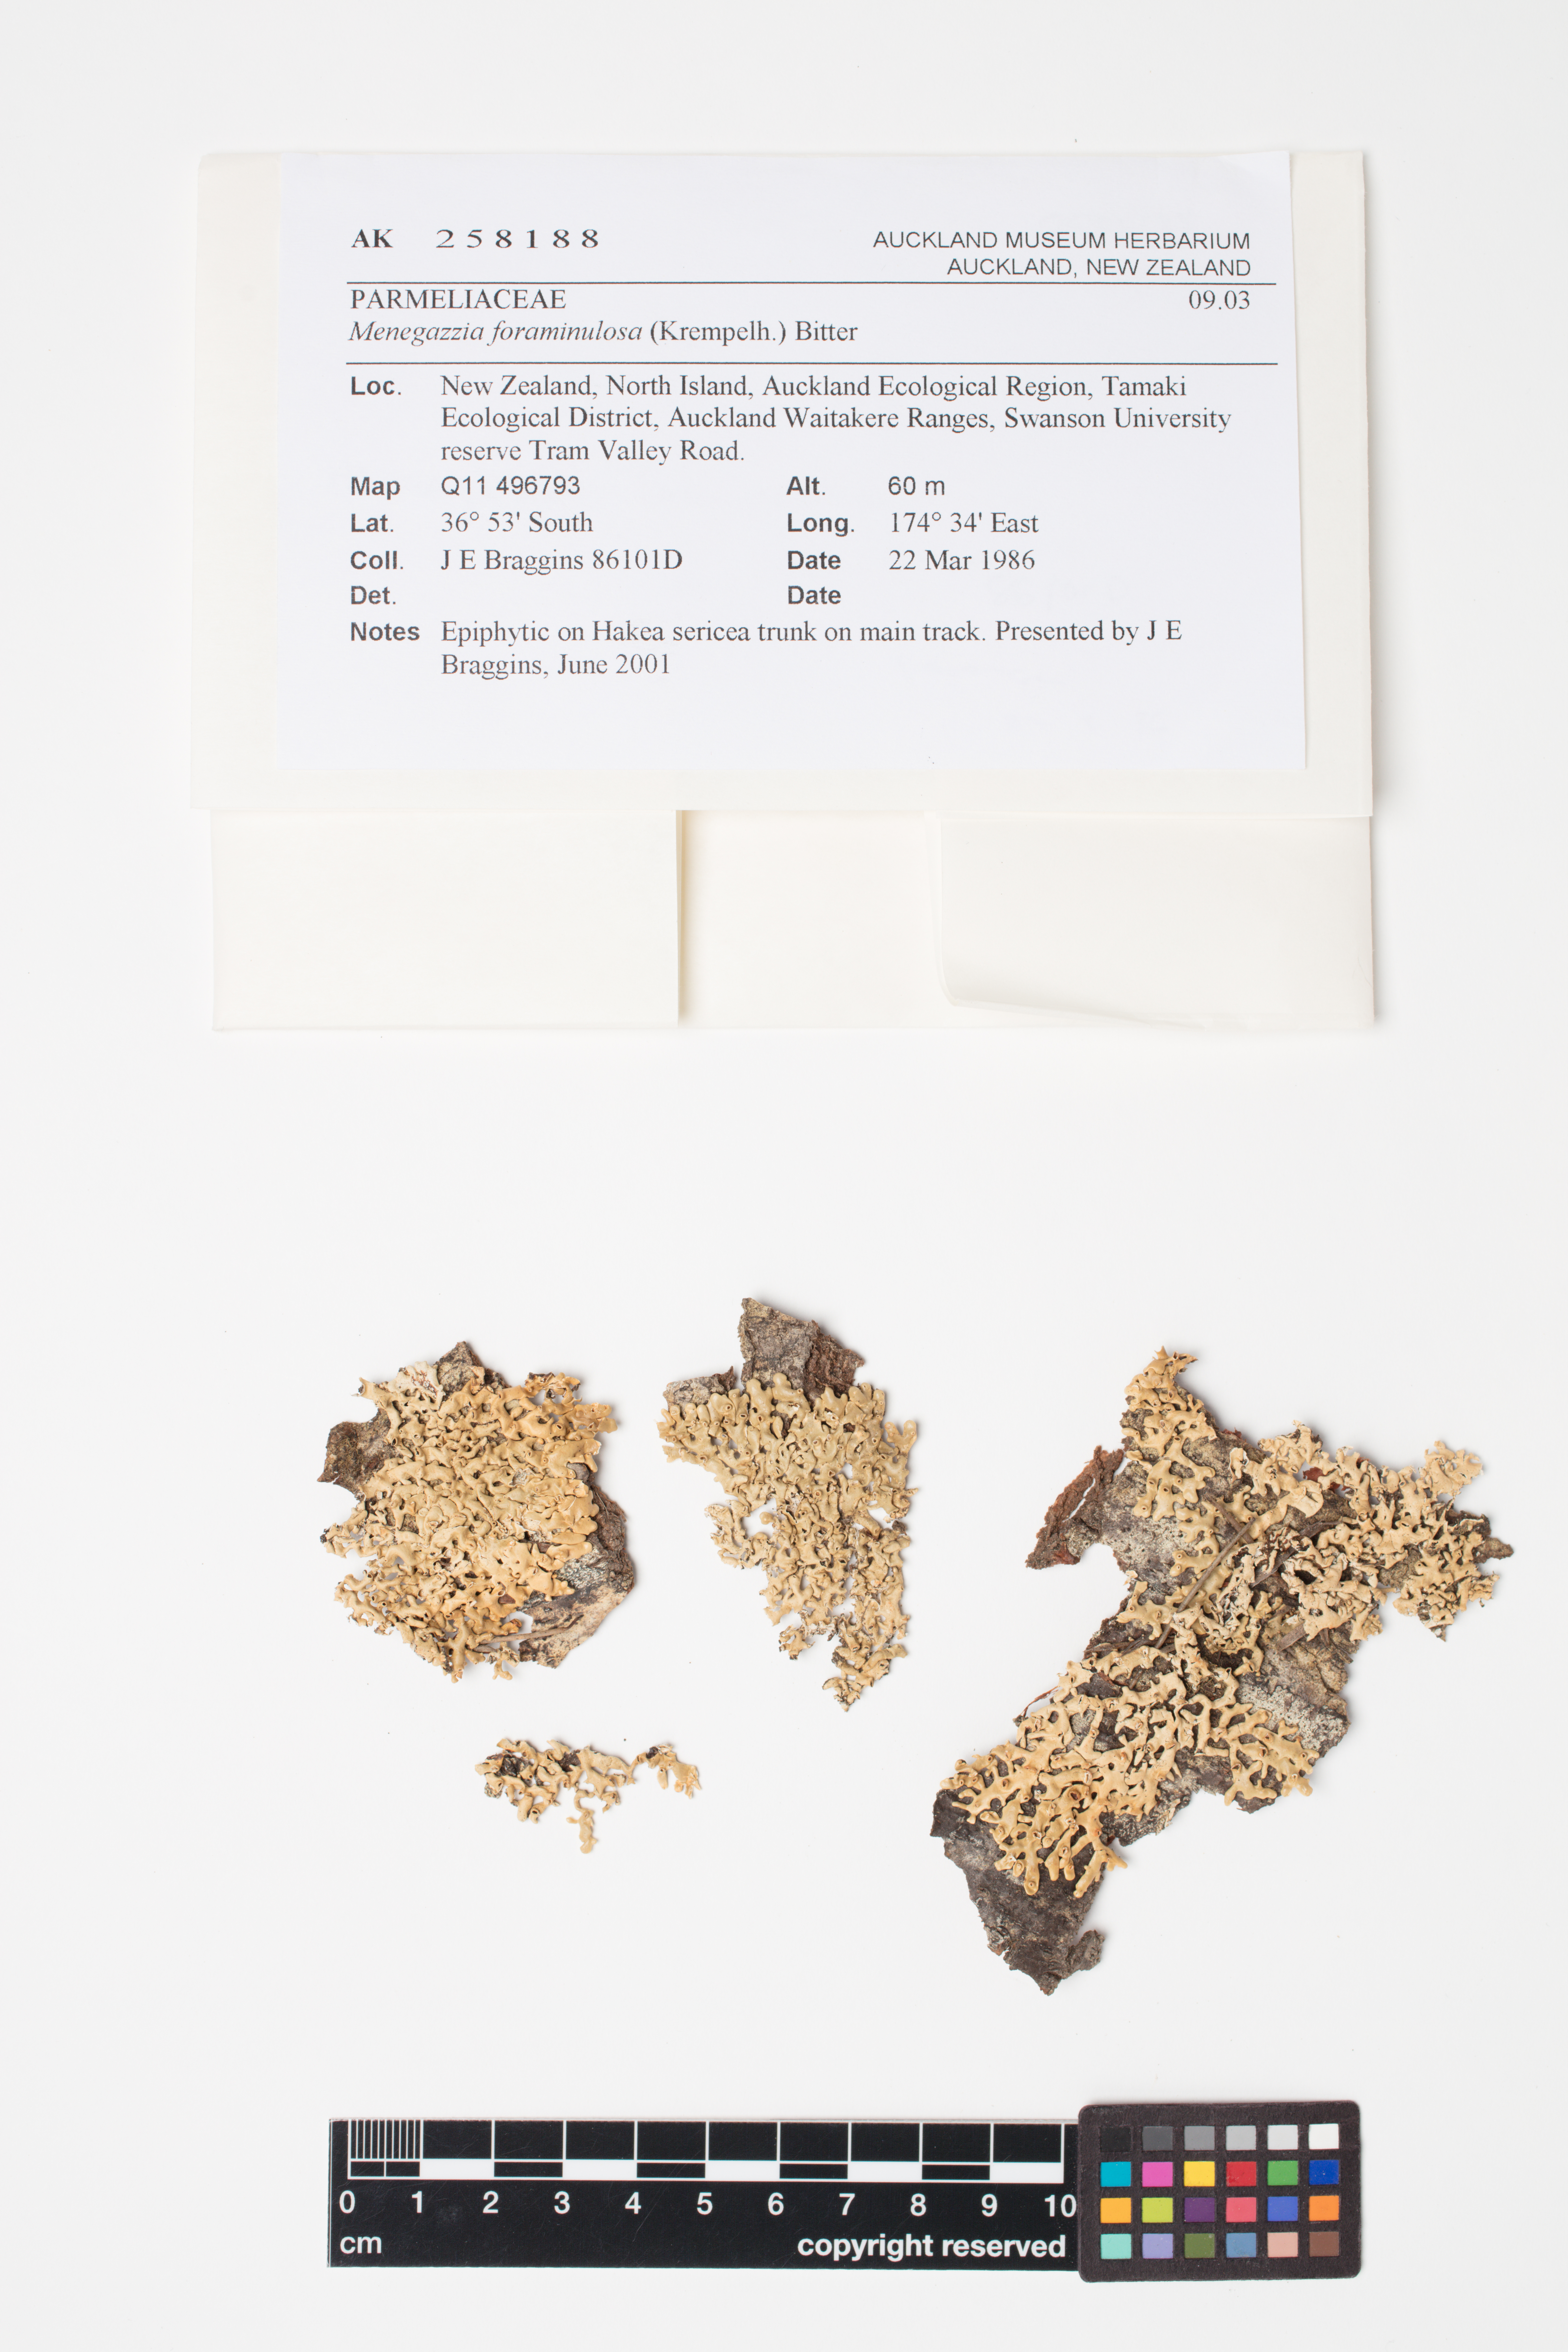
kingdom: Fungi
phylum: Ascomycota
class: Lecanoromycetes
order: Lecanorales
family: Parmeliaceae
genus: Menegazzia
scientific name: Menegazzia
